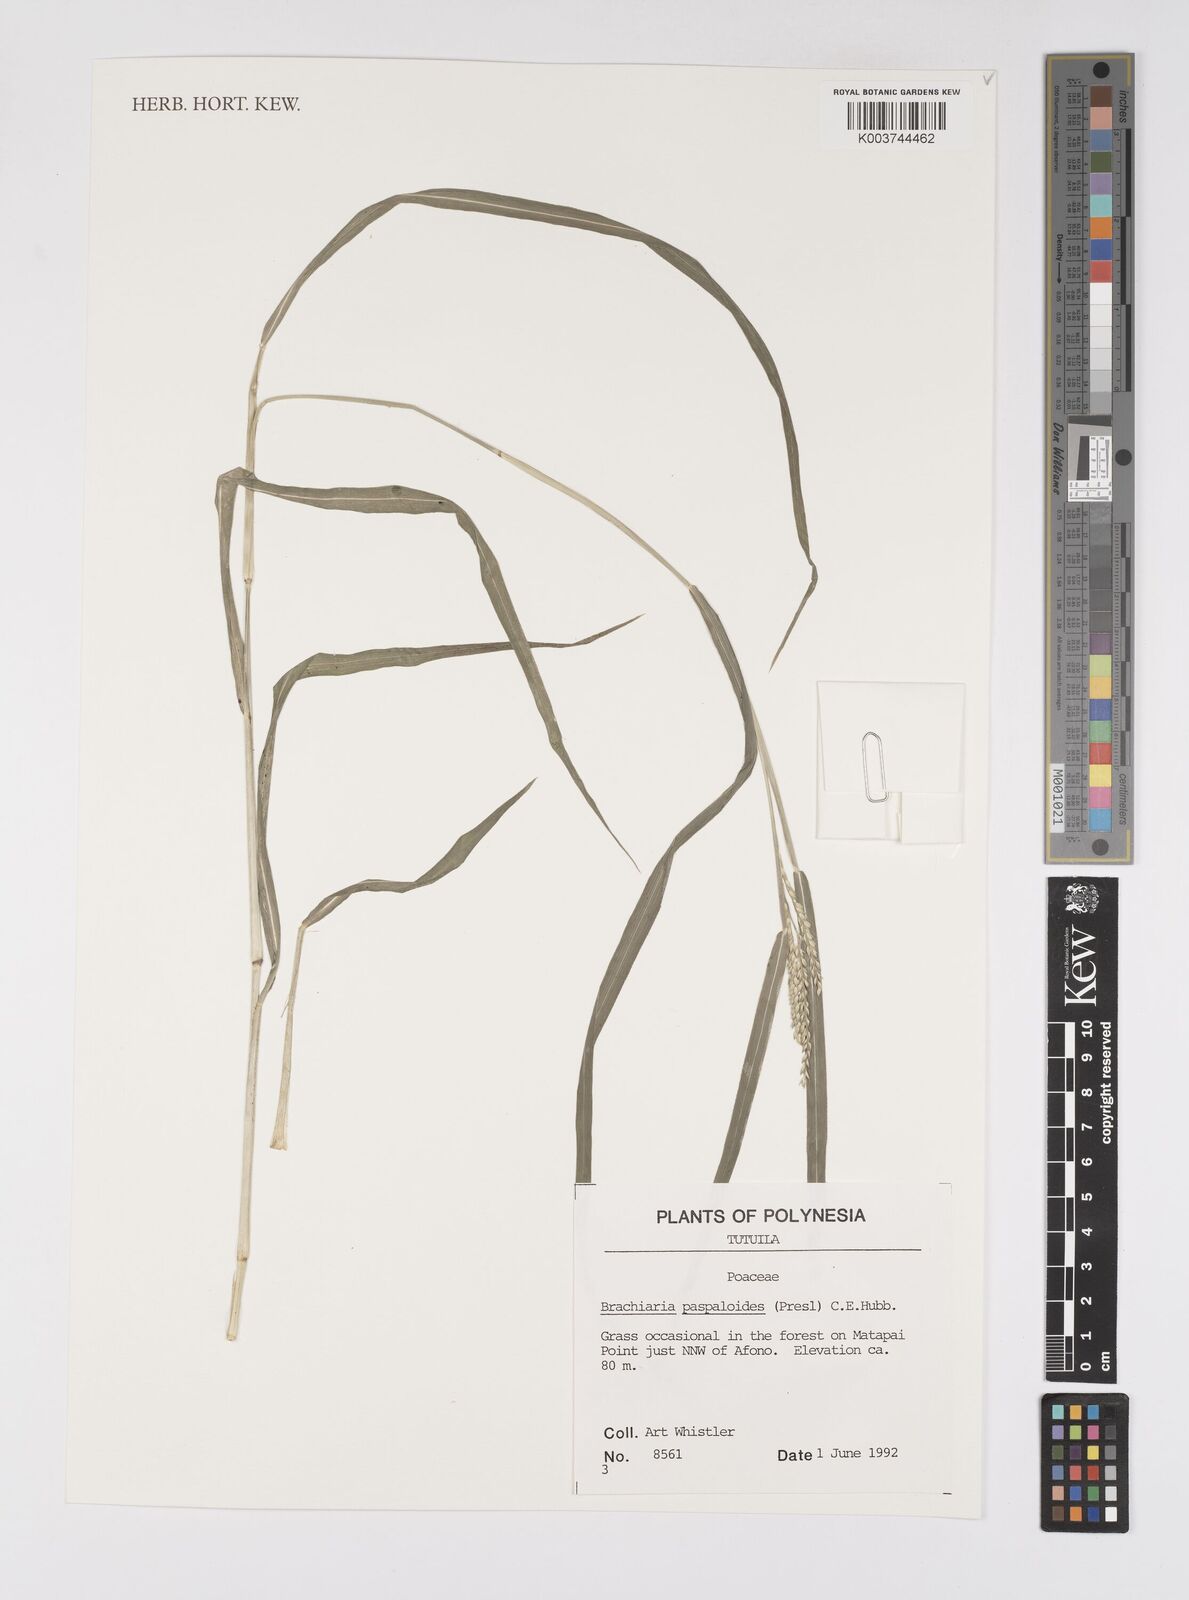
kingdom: Plantae
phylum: Tracheophyta
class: Liliopsida
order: Poales
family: Poaceae
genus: Urochloa
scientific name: Urochloa glumaris
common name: Thurston grass
